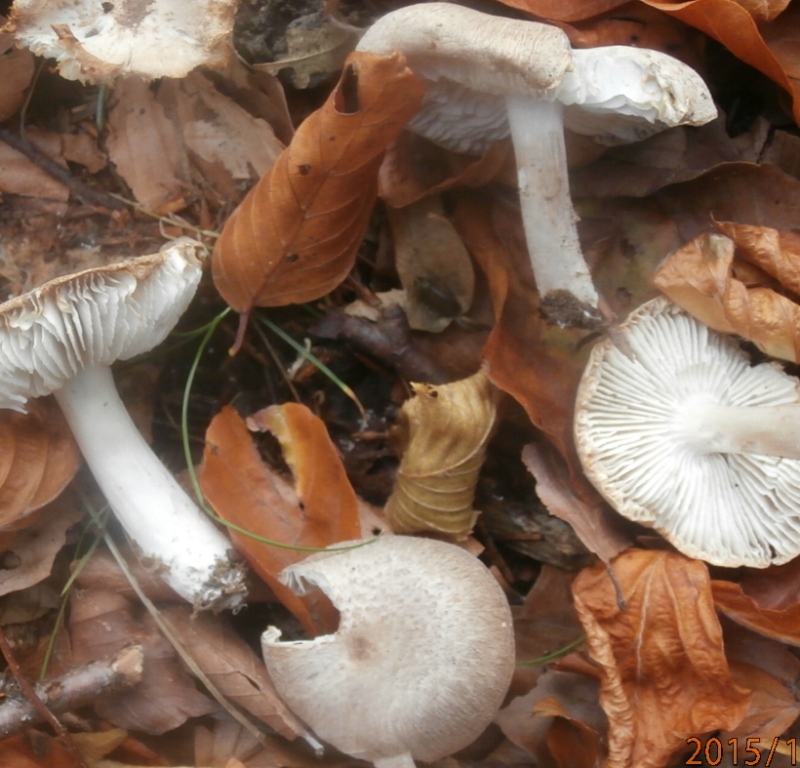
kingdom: Fungi
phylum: Basidiomycota
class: Agaricomycetes
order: Agaricales
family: Tricholomataceae
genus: Tricholoma
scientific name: Tricholoma scalpturatum
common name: gulplettet ridderhat
